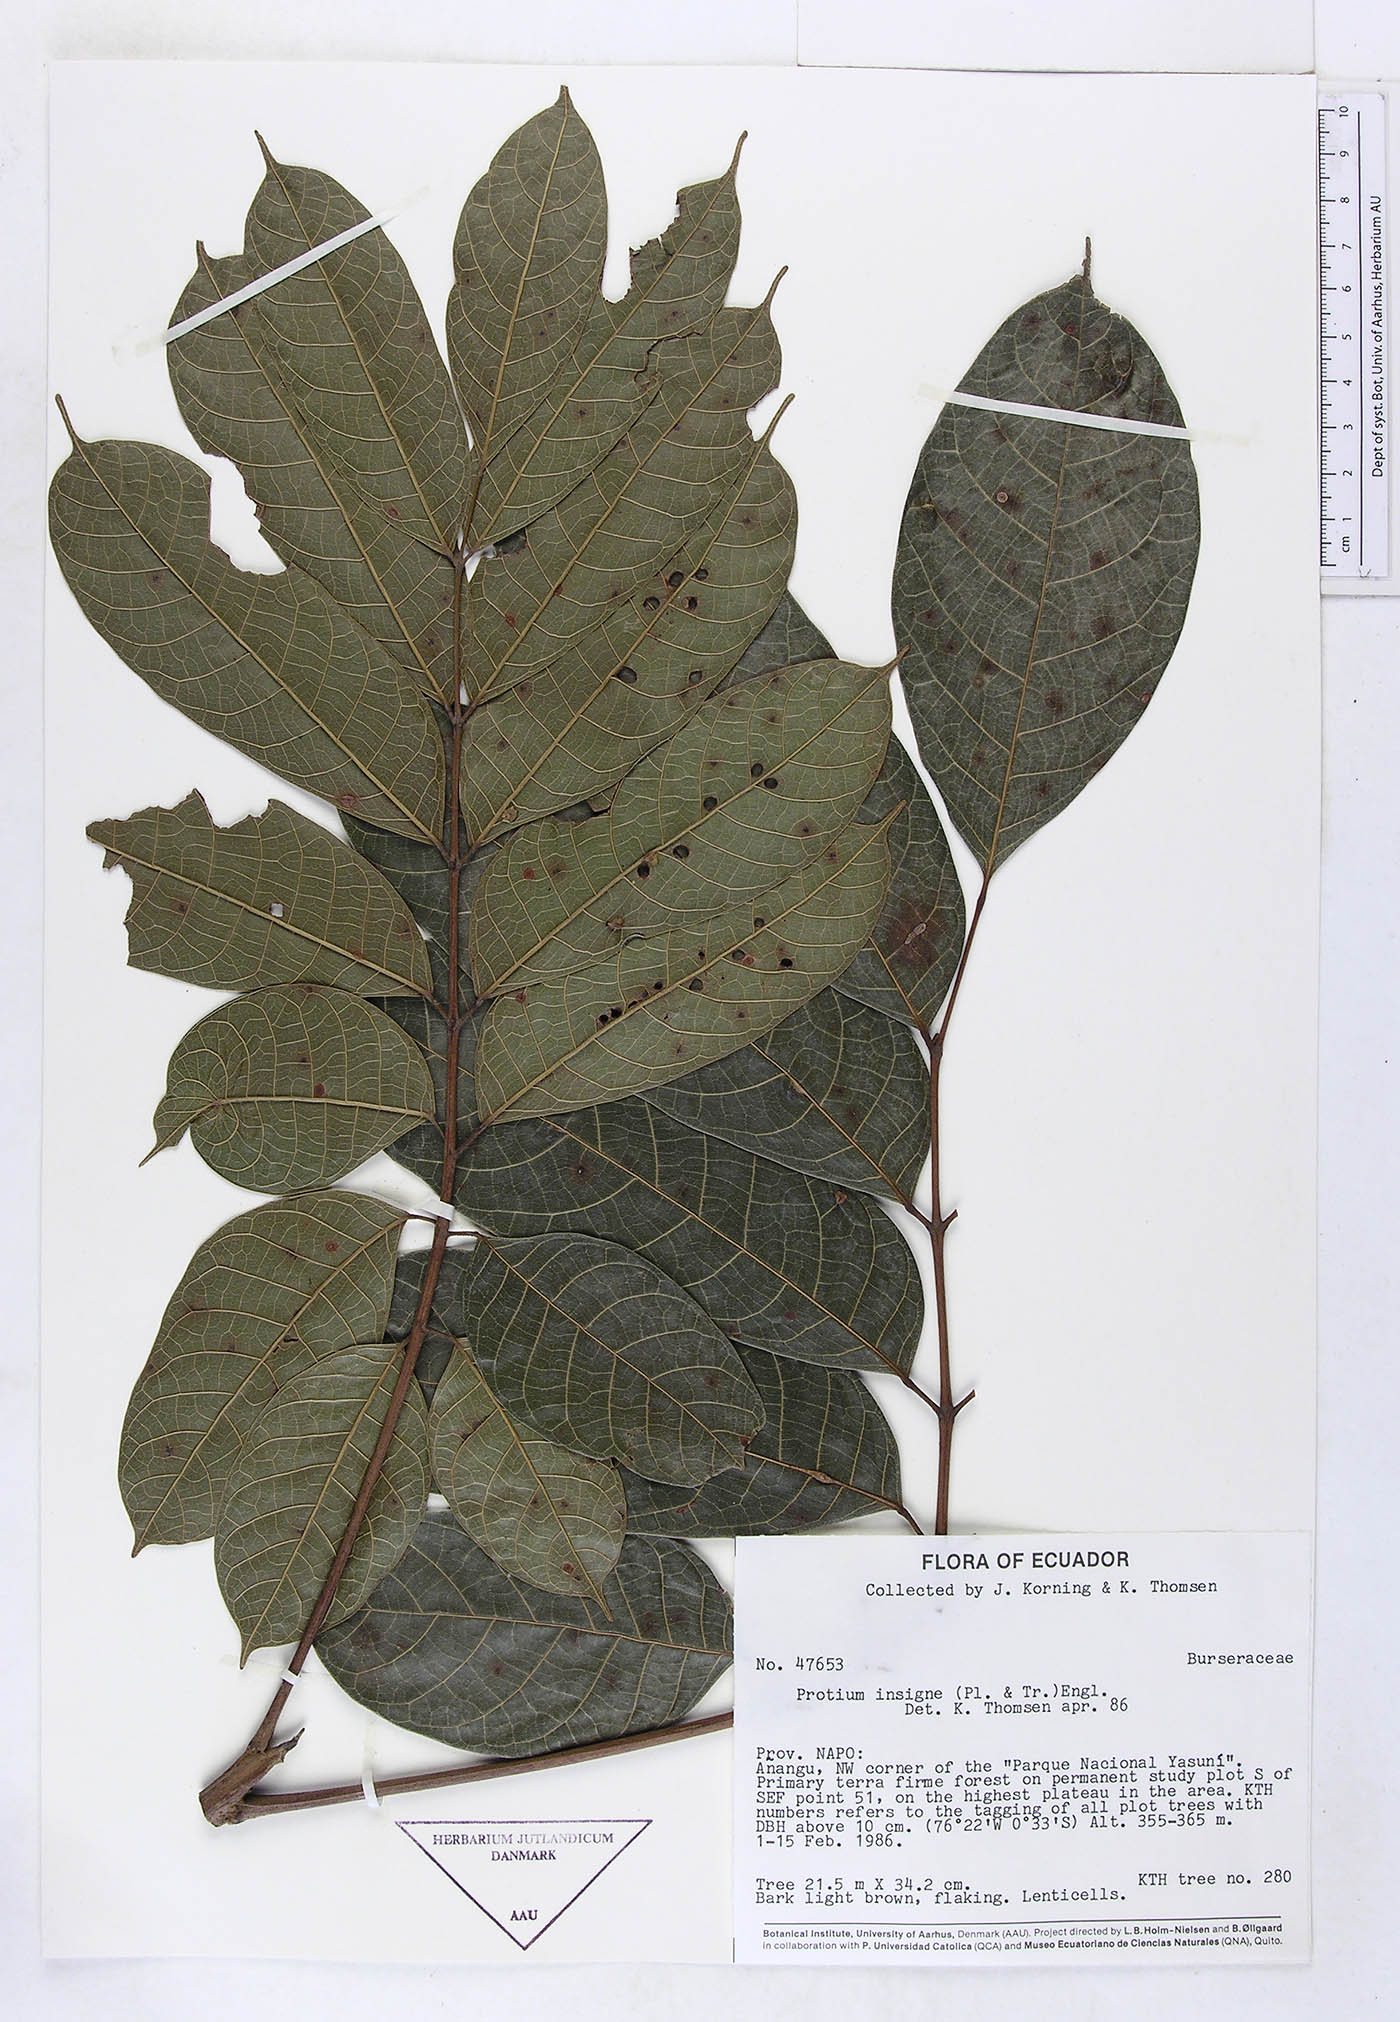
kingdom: Plantae
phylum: Tracheophyta
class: Magnoliopsida
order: Sapindales
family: Burseraceae
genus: Protium
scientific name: Protium sagotianum
